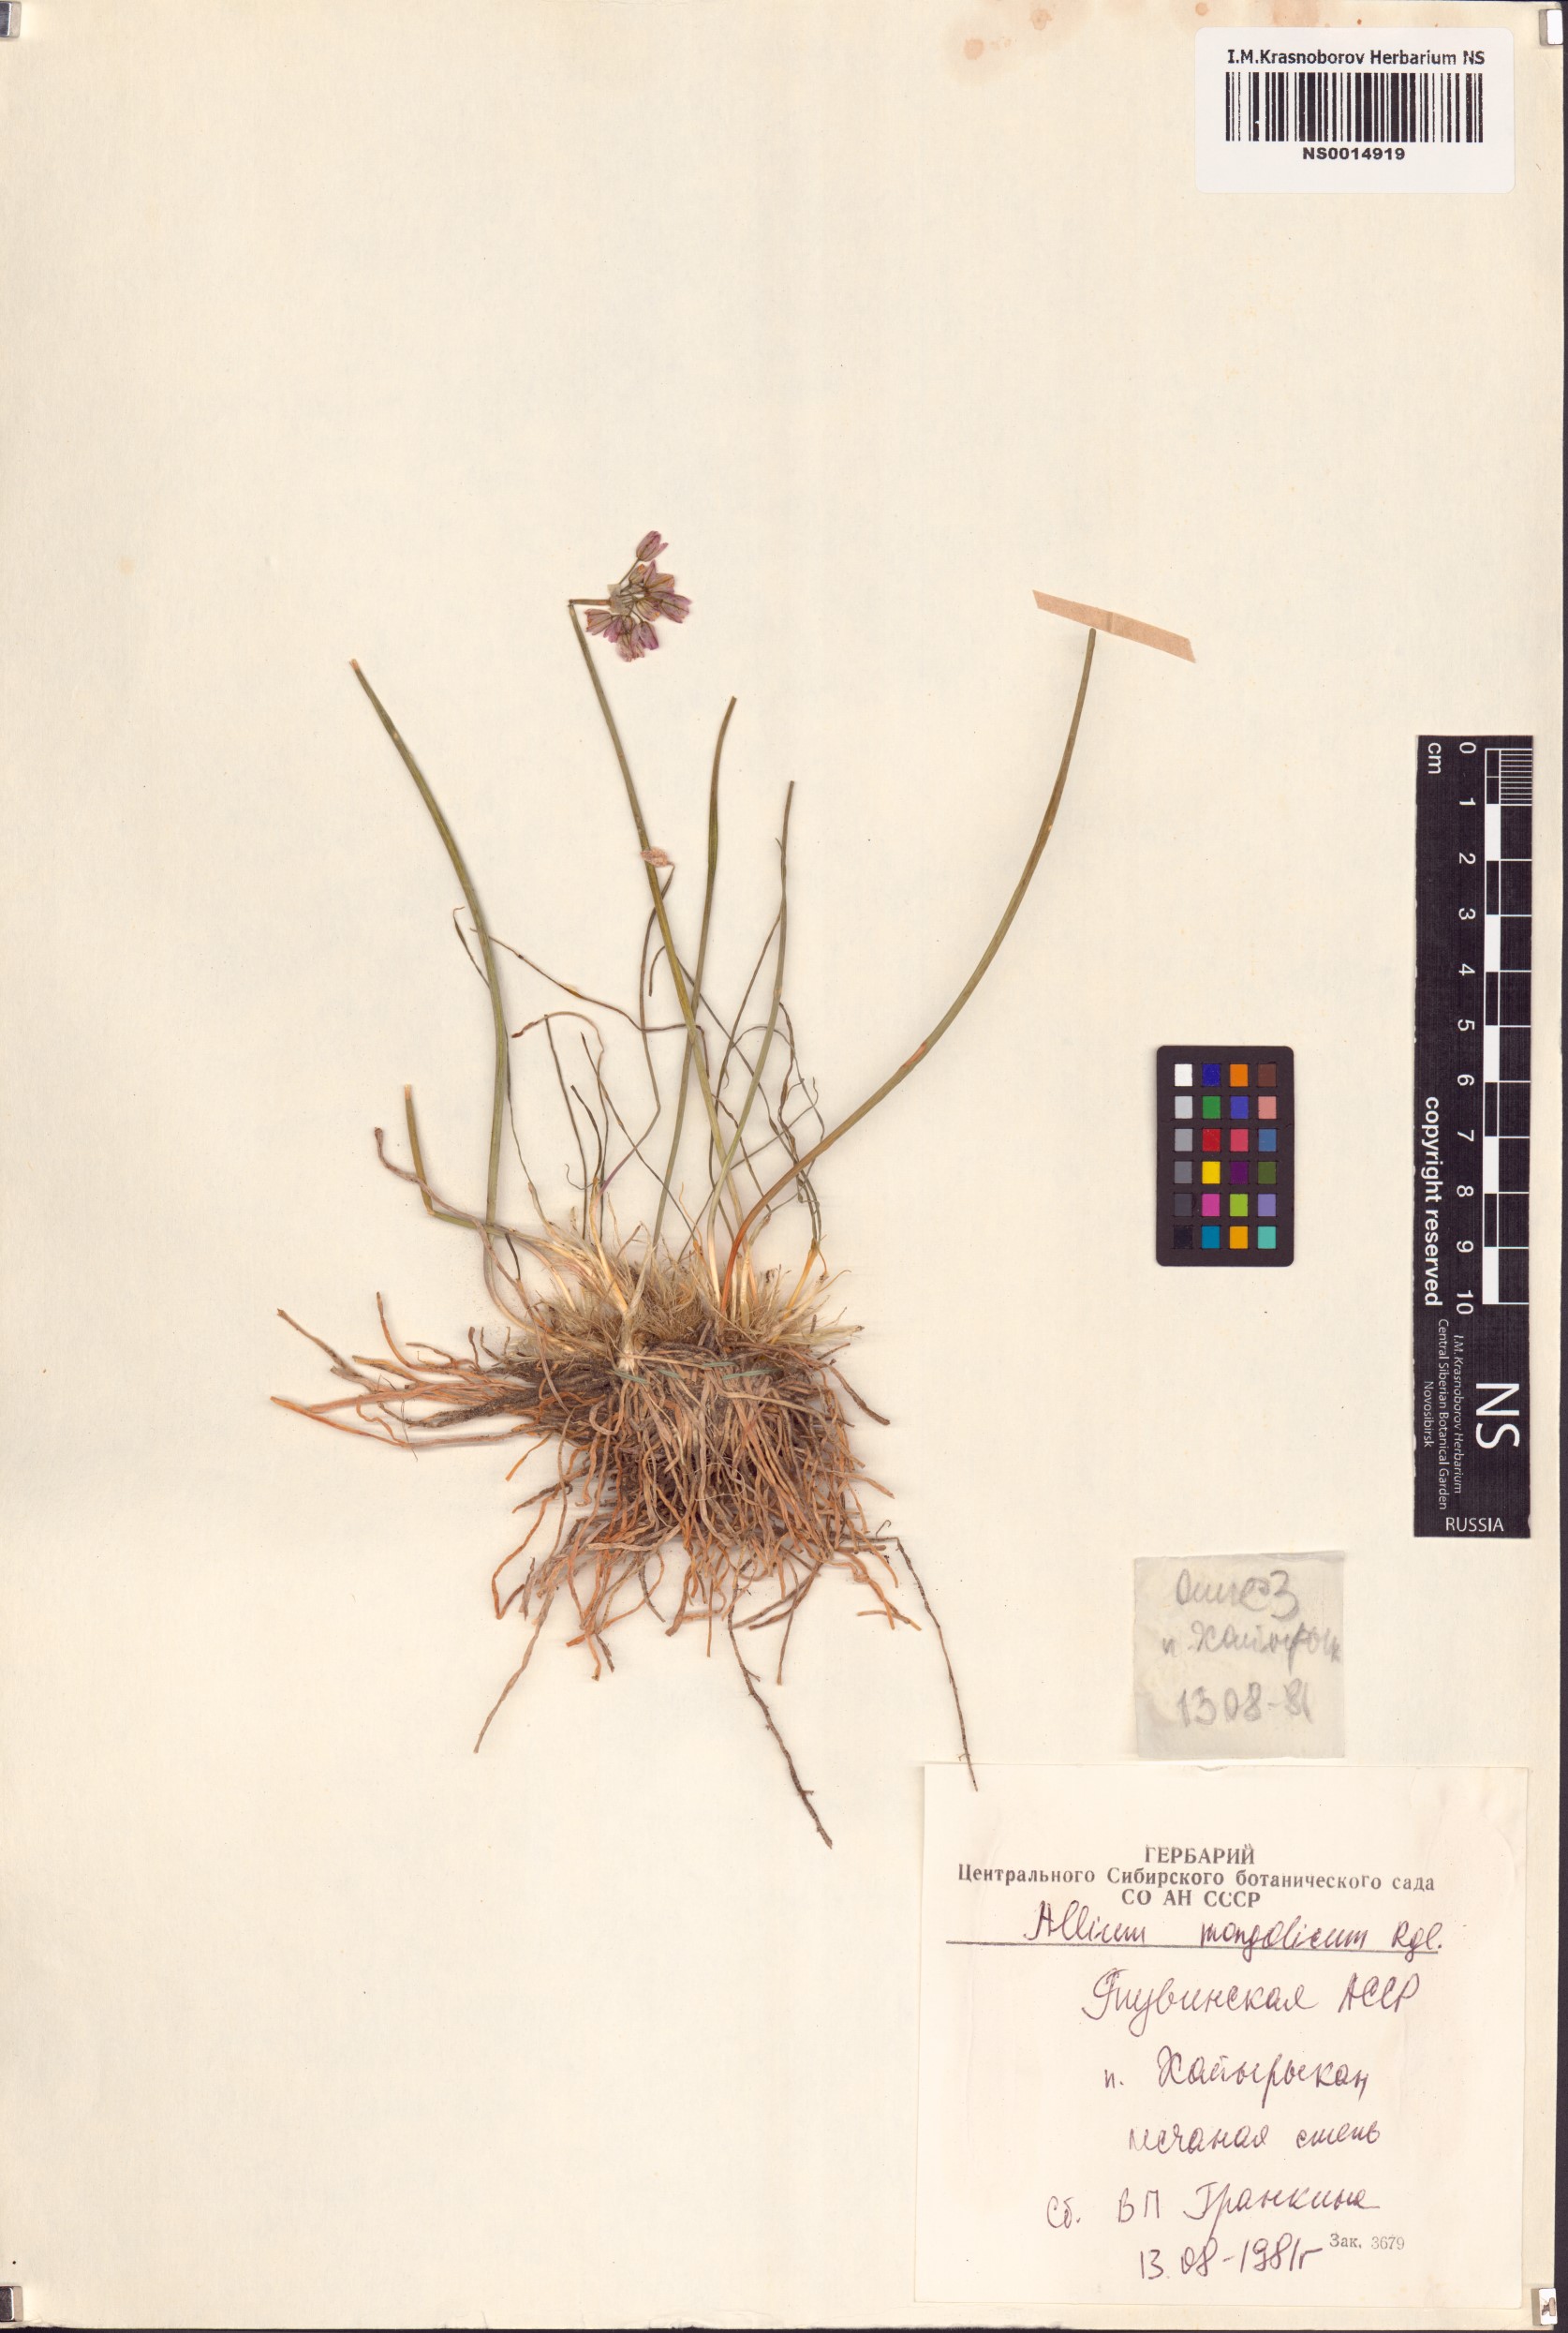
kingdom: Plantae
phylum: Tracheophyta
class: Liliopsida
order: Asparagales
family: Amaryllidaceae
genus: Allium
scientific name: Allium mongolicum
